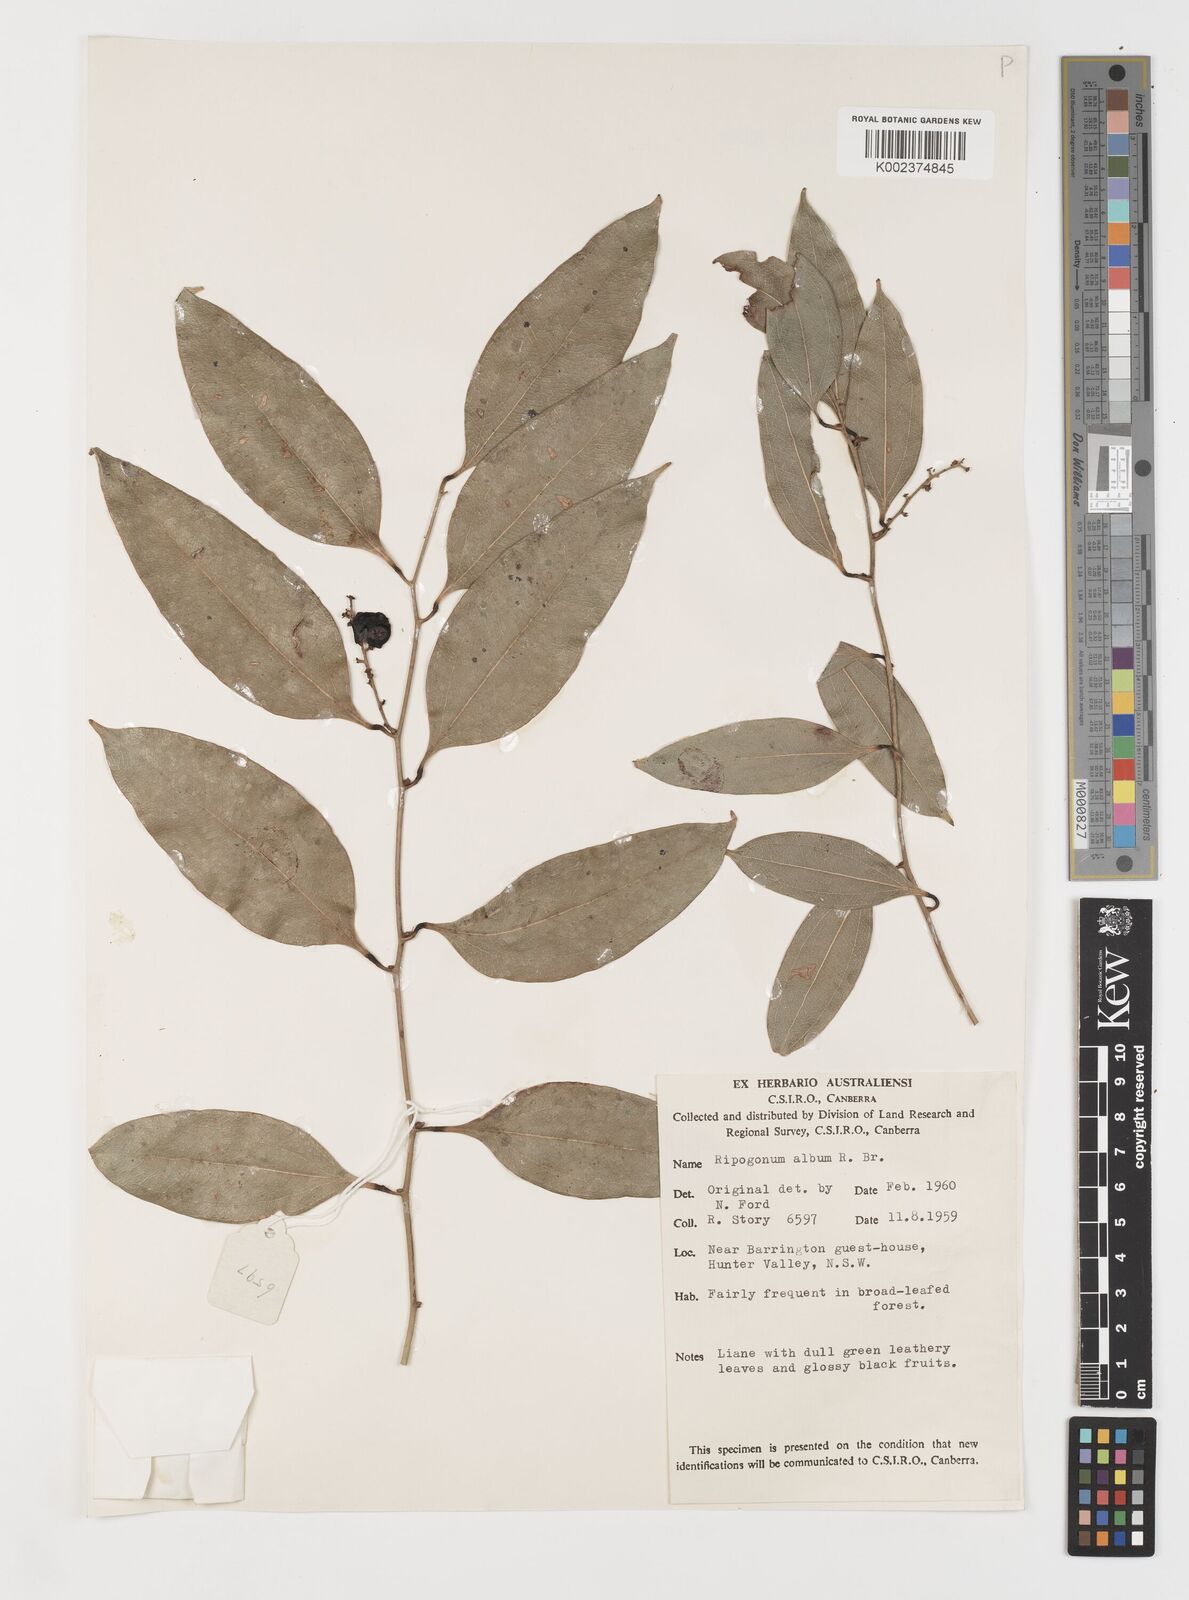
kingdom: Plantae
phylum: Tracheophyta
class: Liliopsida
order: Liliales
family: Ripogonaceae
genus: Ripogonum
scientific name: Ripogonum album
